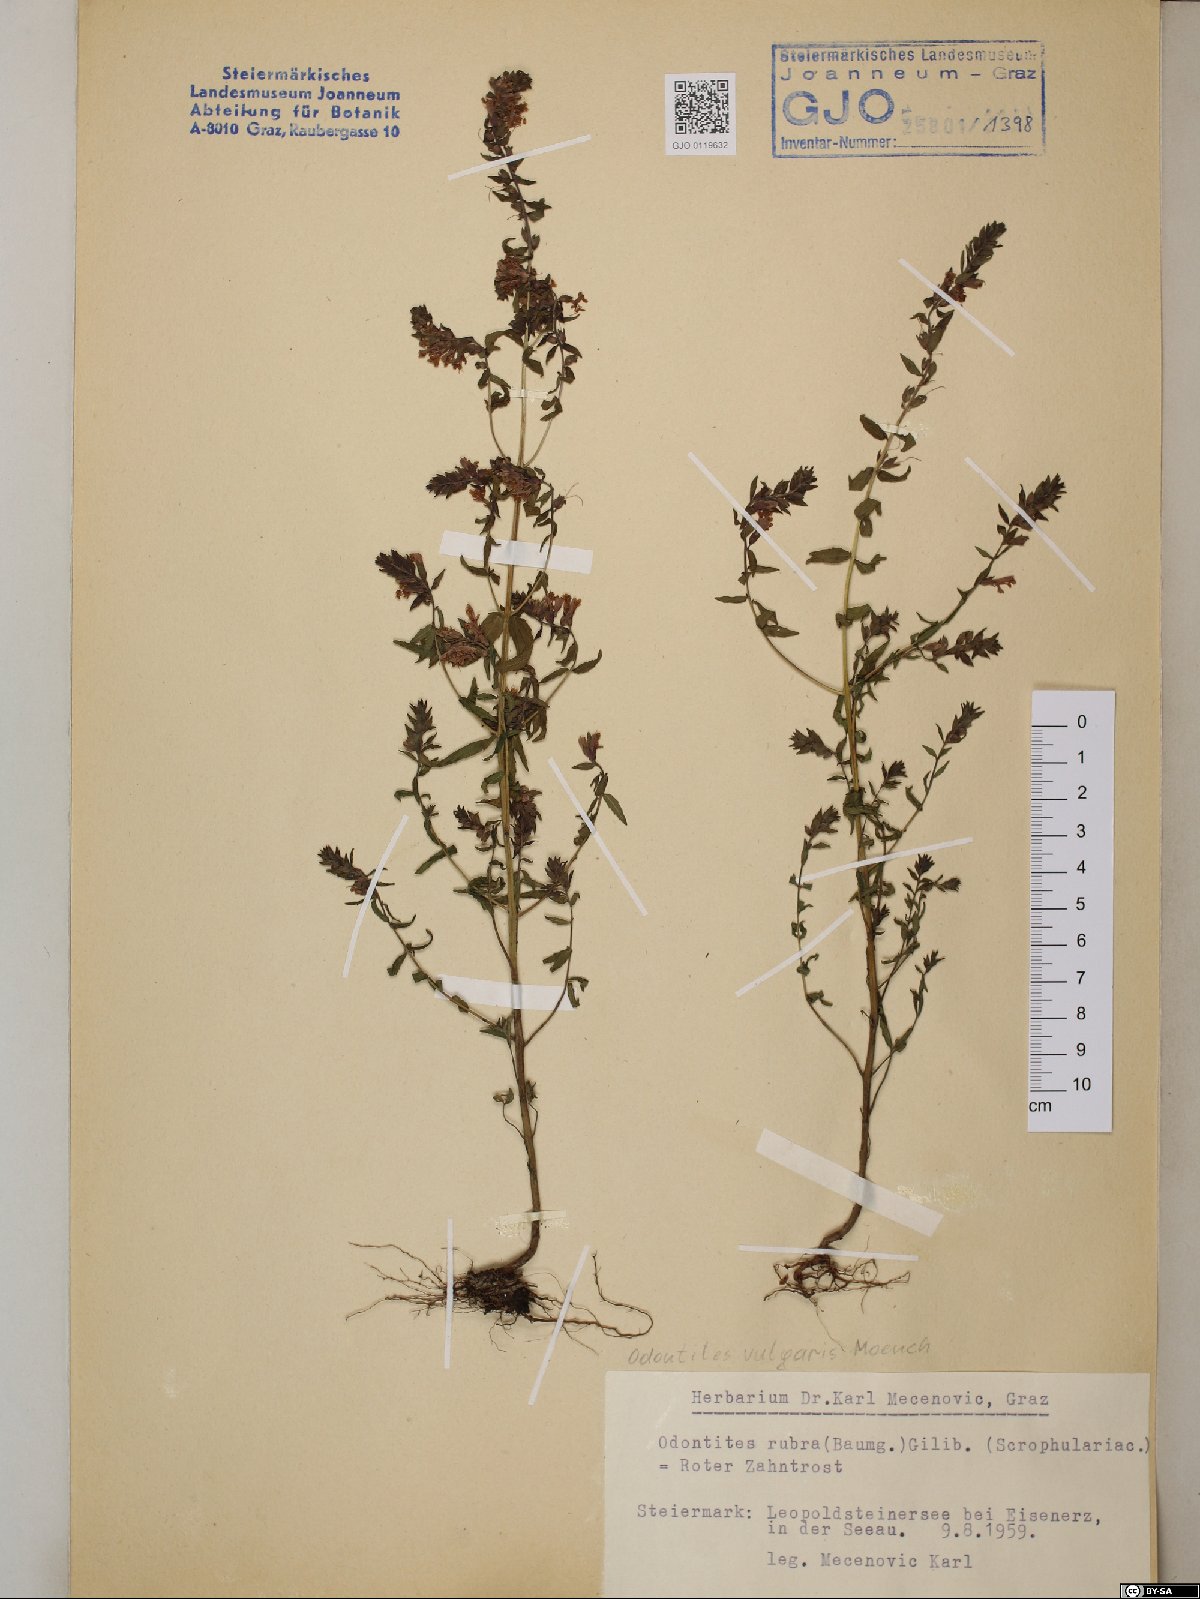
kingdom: Plantae
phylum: Tracheophyta
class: Magnoliopsida
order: Lamiales
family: Orobanchaceae
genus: Odontites
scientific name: Odontites vulgaris
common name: Broomrape
